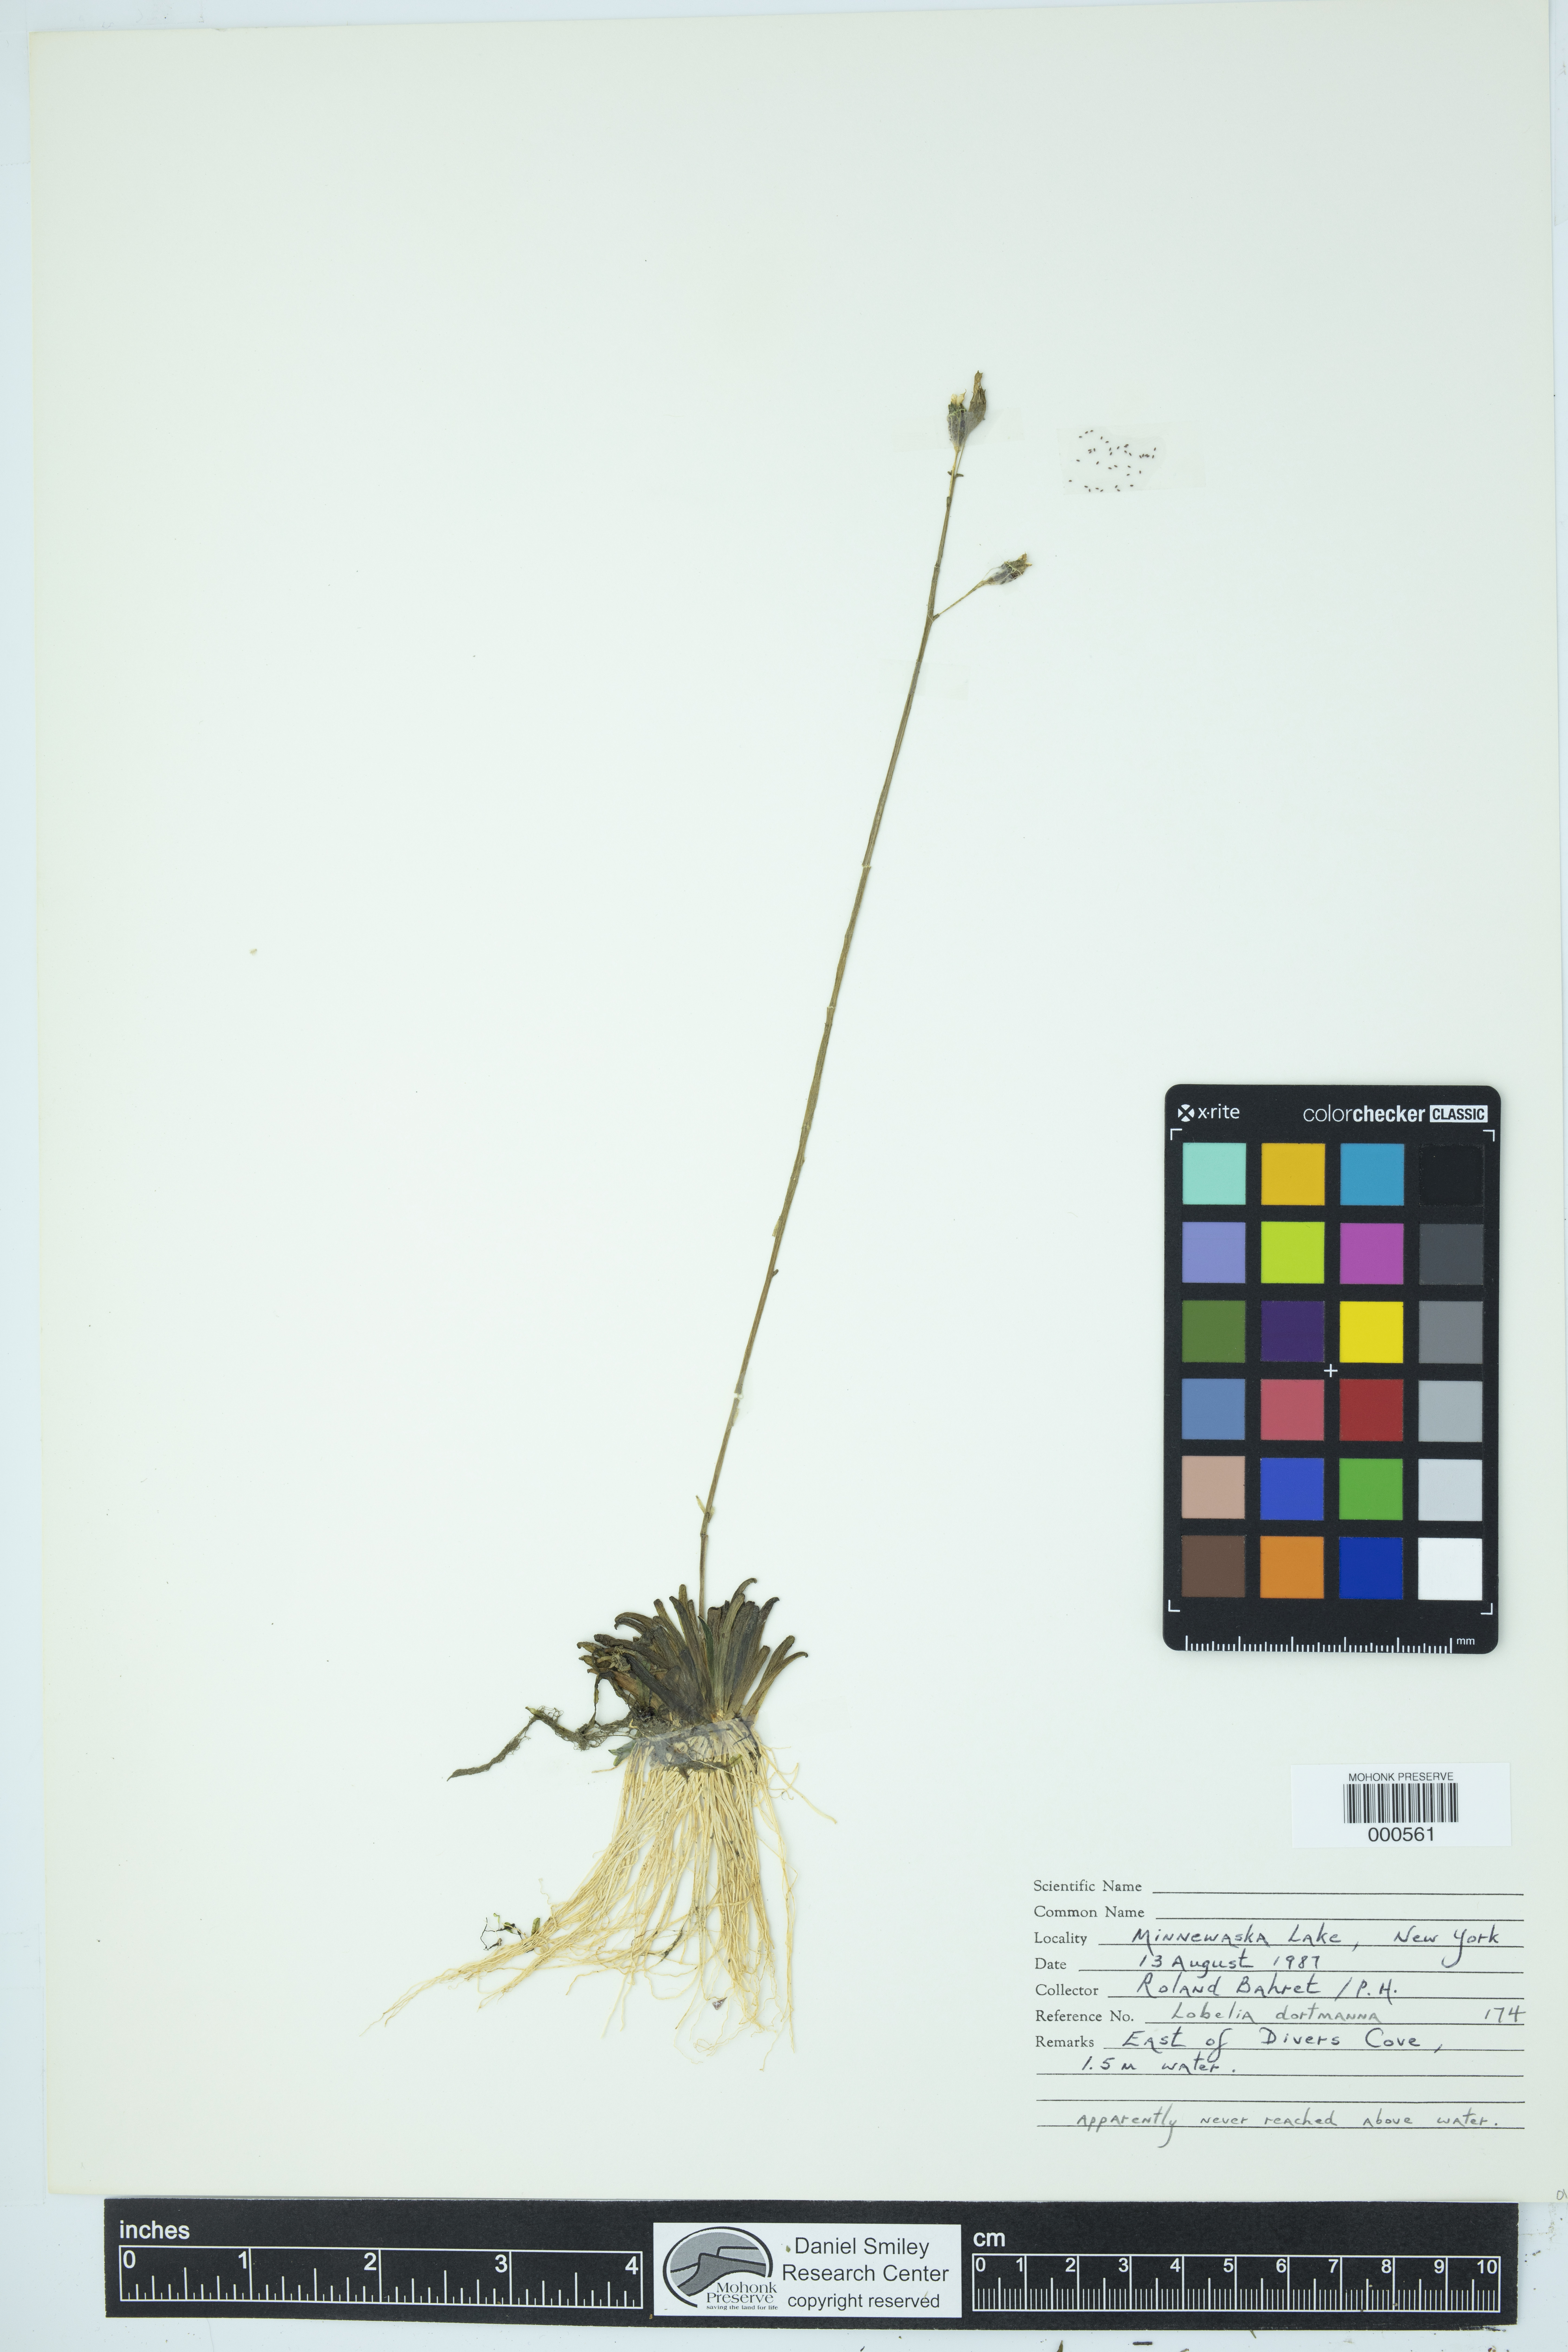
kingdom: Plantae
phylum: Tracheophyta
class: Magnoliopsida
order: Asterales
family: Campanulaceae
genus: Lobelia
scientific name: Lobelia dortmanna
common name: Water lobelia
